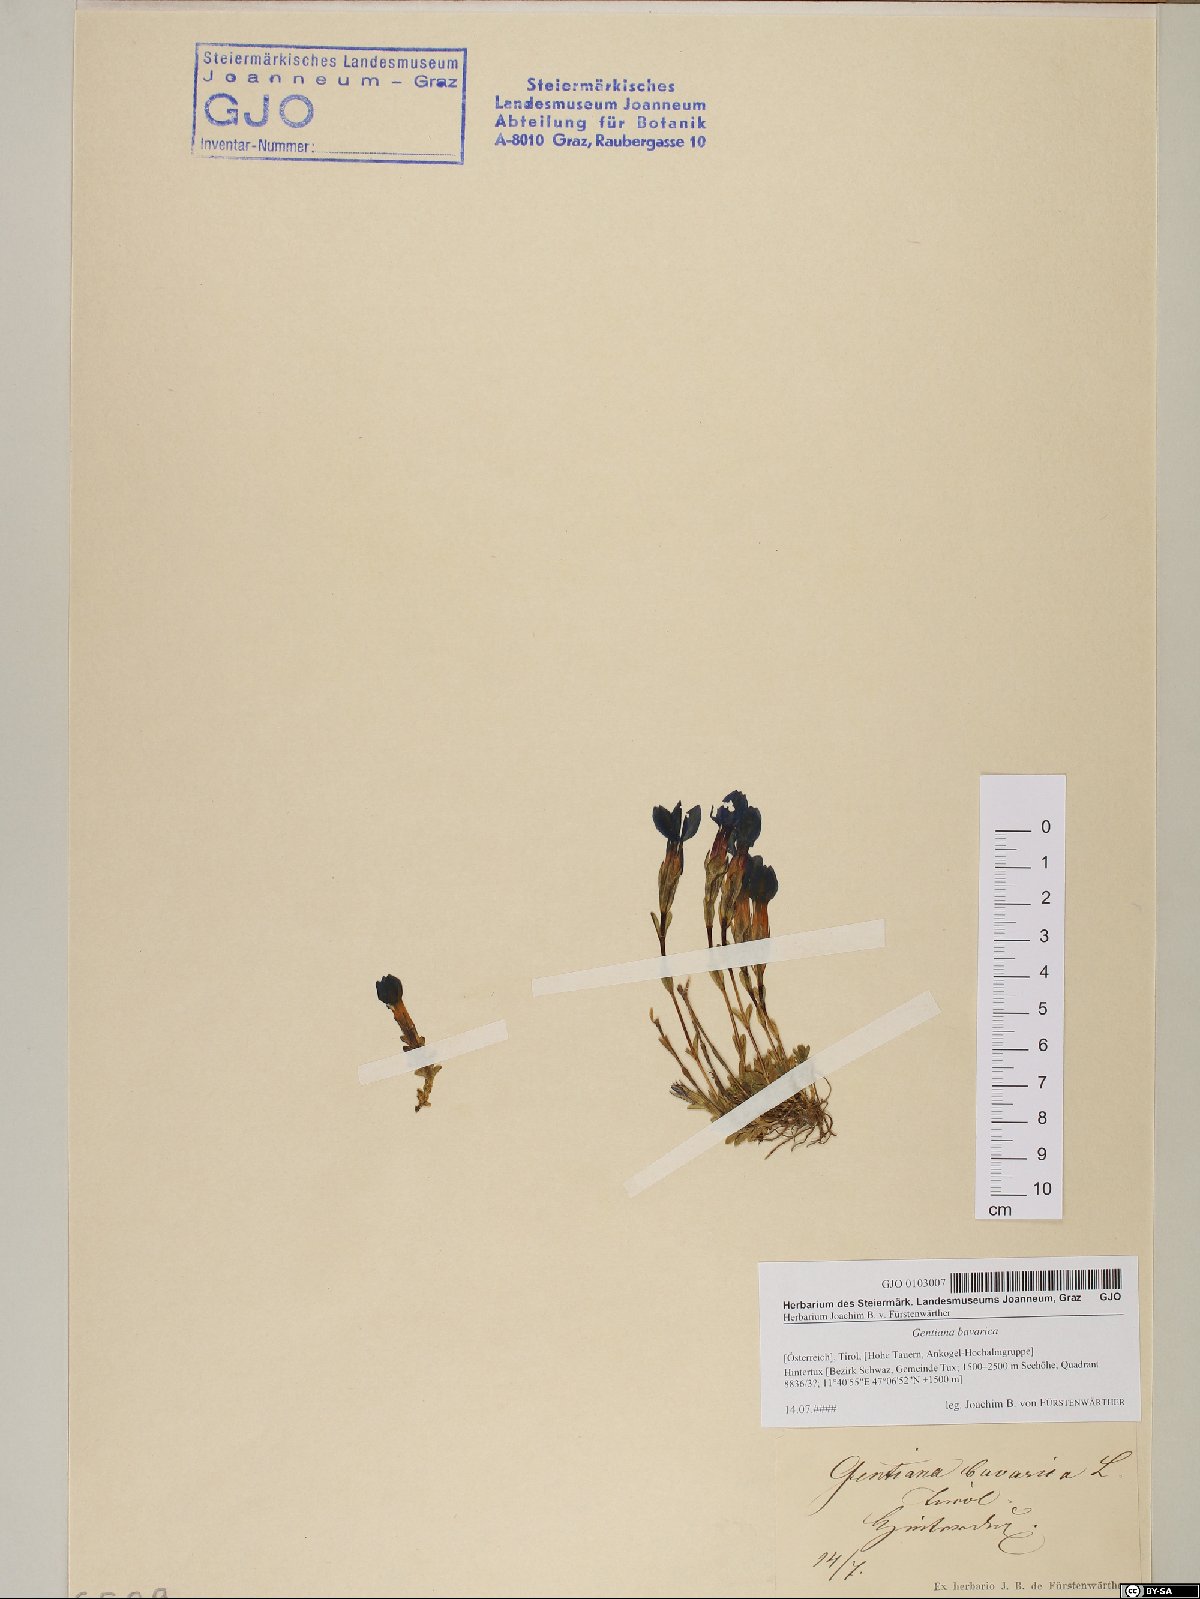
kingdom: Plantae
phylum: Tracheophyta
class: Magnoliopsida
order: Gentianales
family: Gentianaceae
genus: Gentiana
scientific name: Gentiana bavarica
